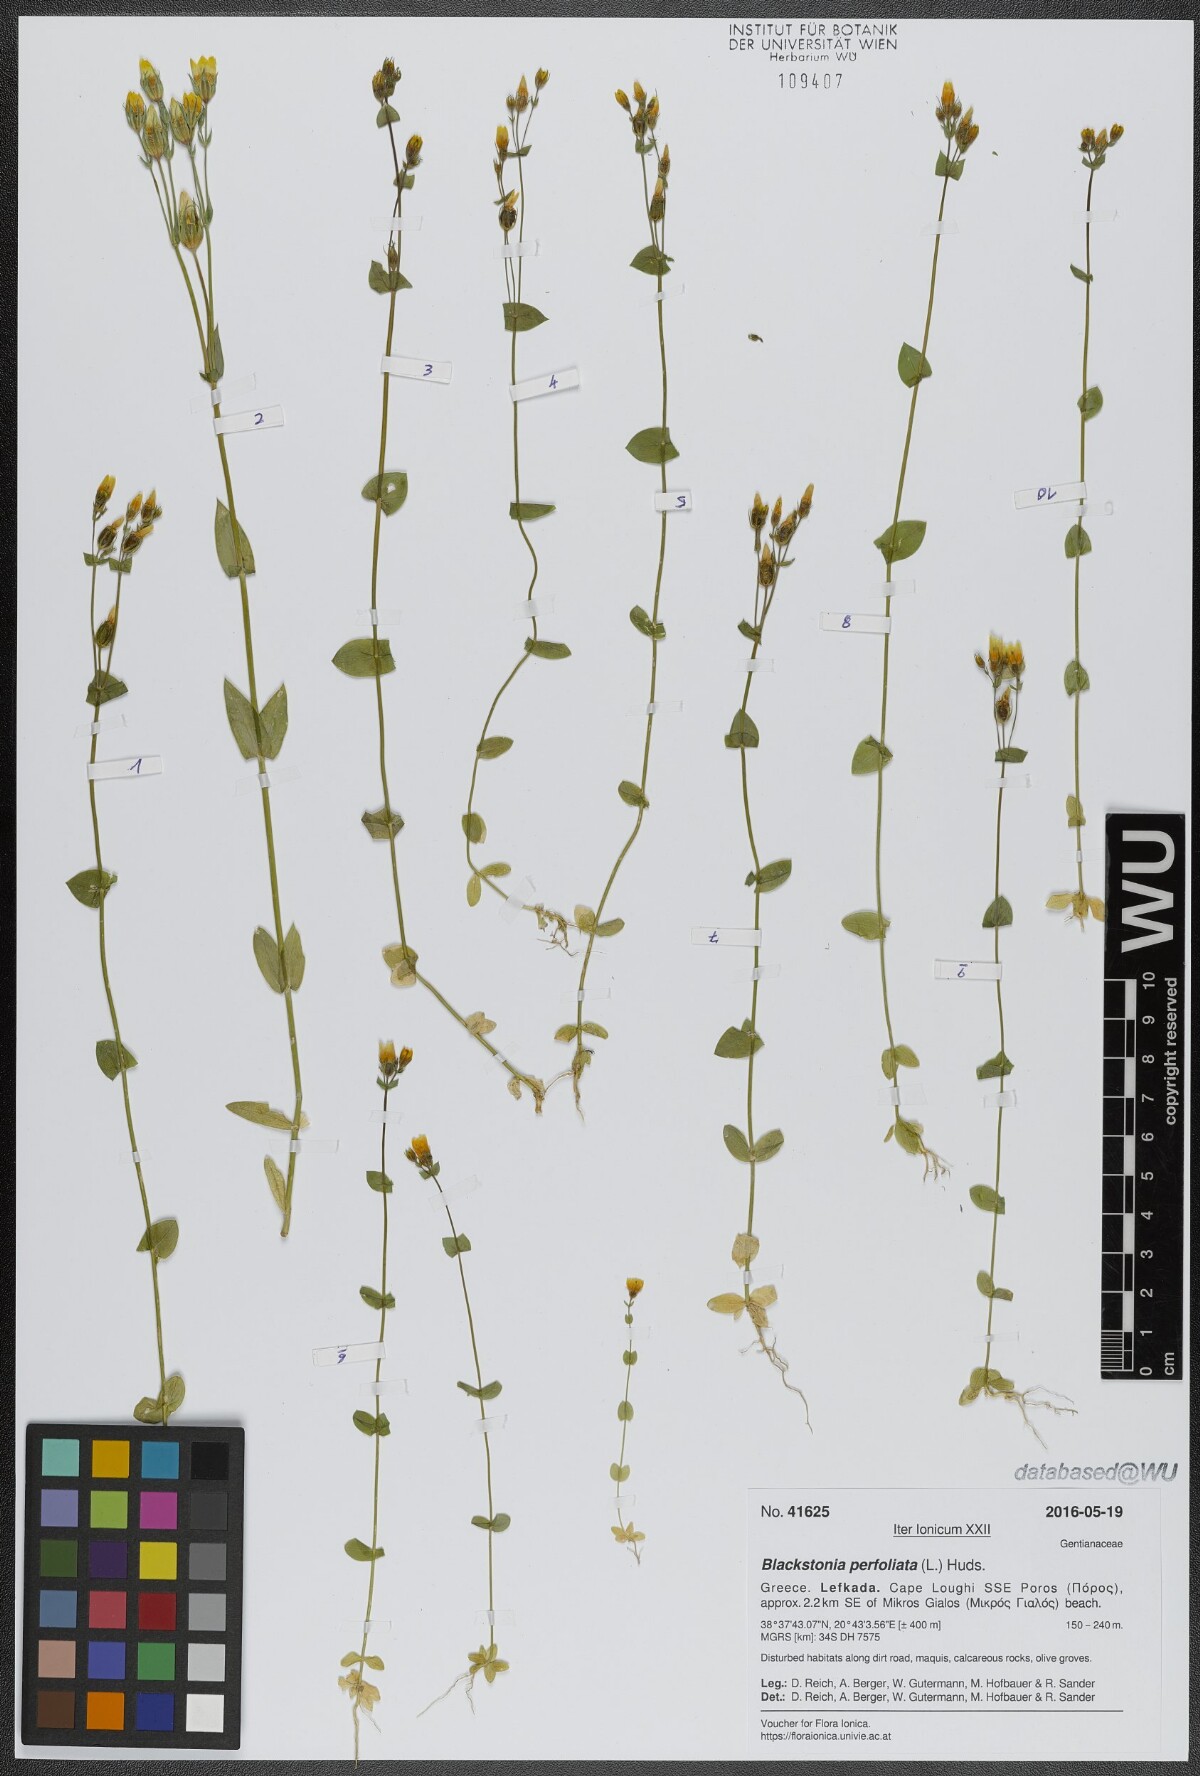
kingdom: Plantae
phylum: Tracheophyta
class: Magnoliopsida
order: Gentianales
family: Gentianaceae
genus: Blackstonia
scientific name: Blackstonia perfoliata
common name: Yellow-wort
